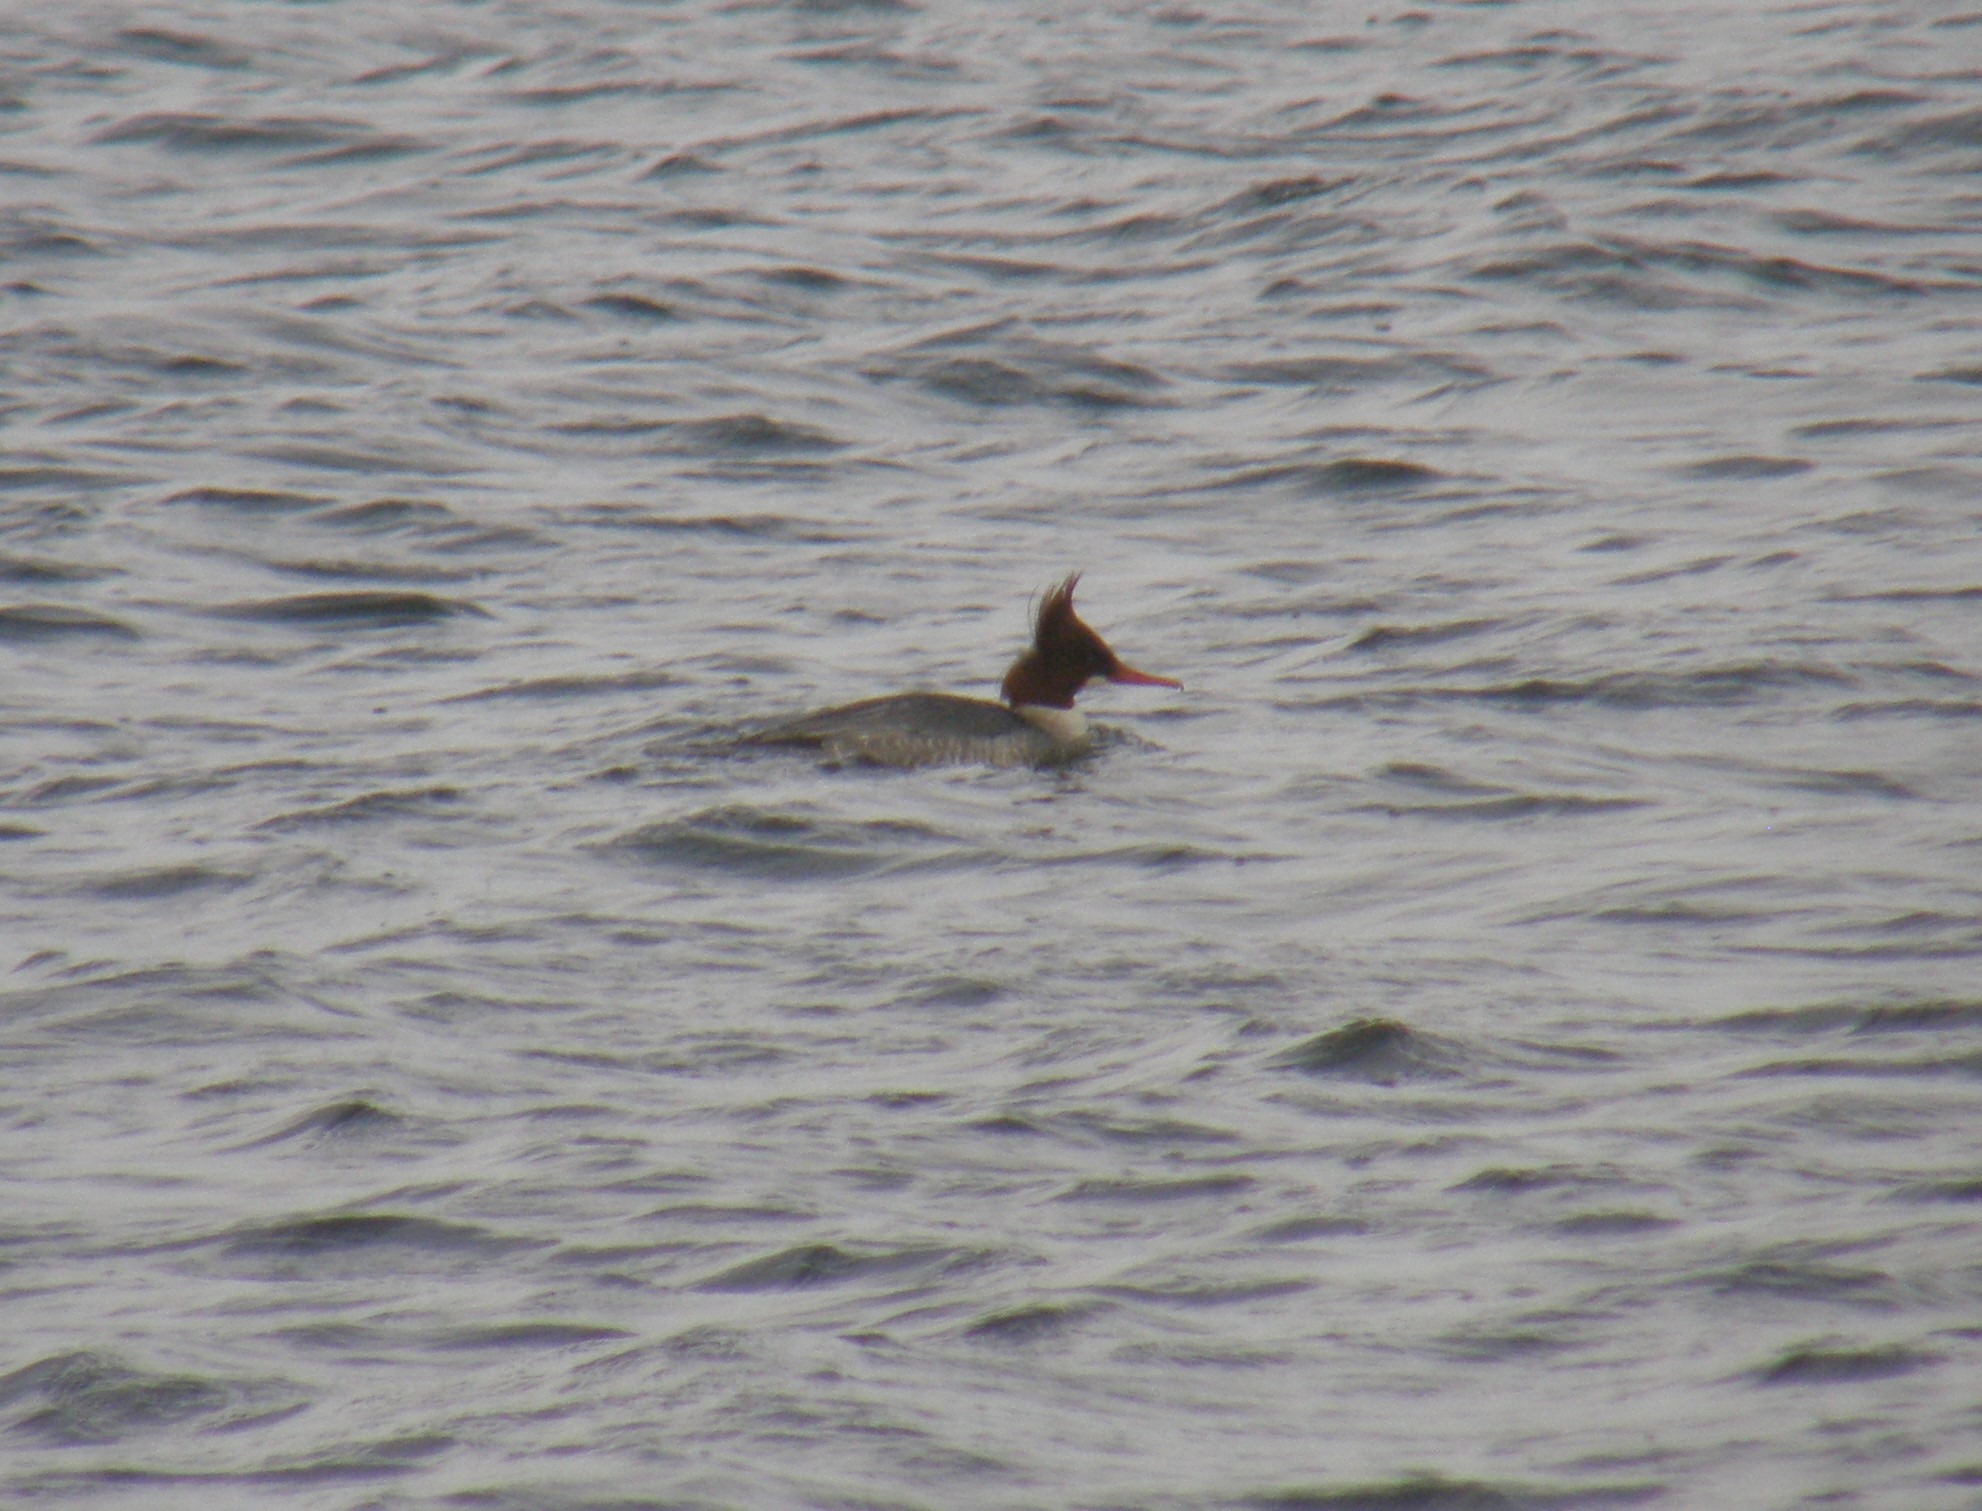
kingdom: Animalia
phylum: Chordata
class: Aves
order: Anseriformes
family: Anatidae
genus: Mergus
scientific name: Mergus merganser
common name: Stor skallesluger
